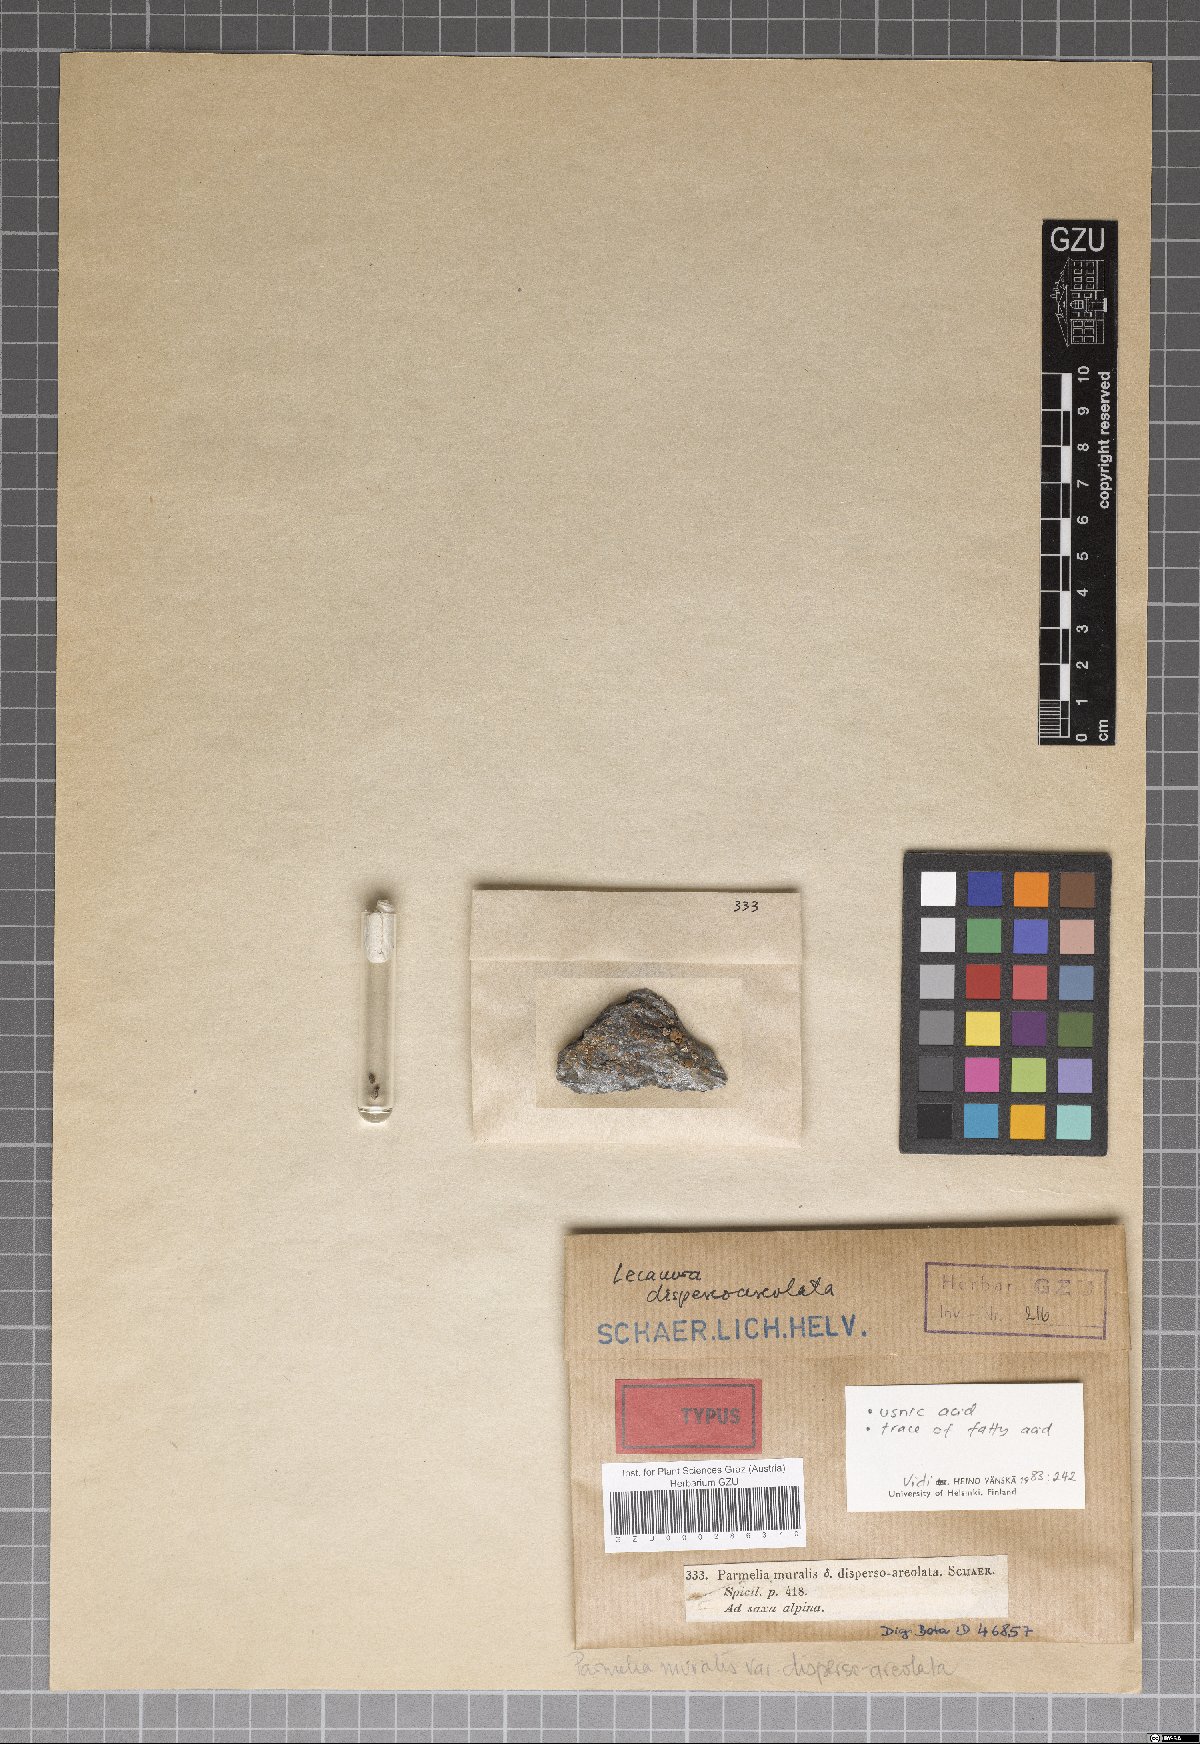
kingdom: Fungi
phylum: Ascomycota
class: Lecanoromycetes
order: Lecanorales
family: Parmeliaceae
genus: Parmelinella
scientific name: Parmelinella
